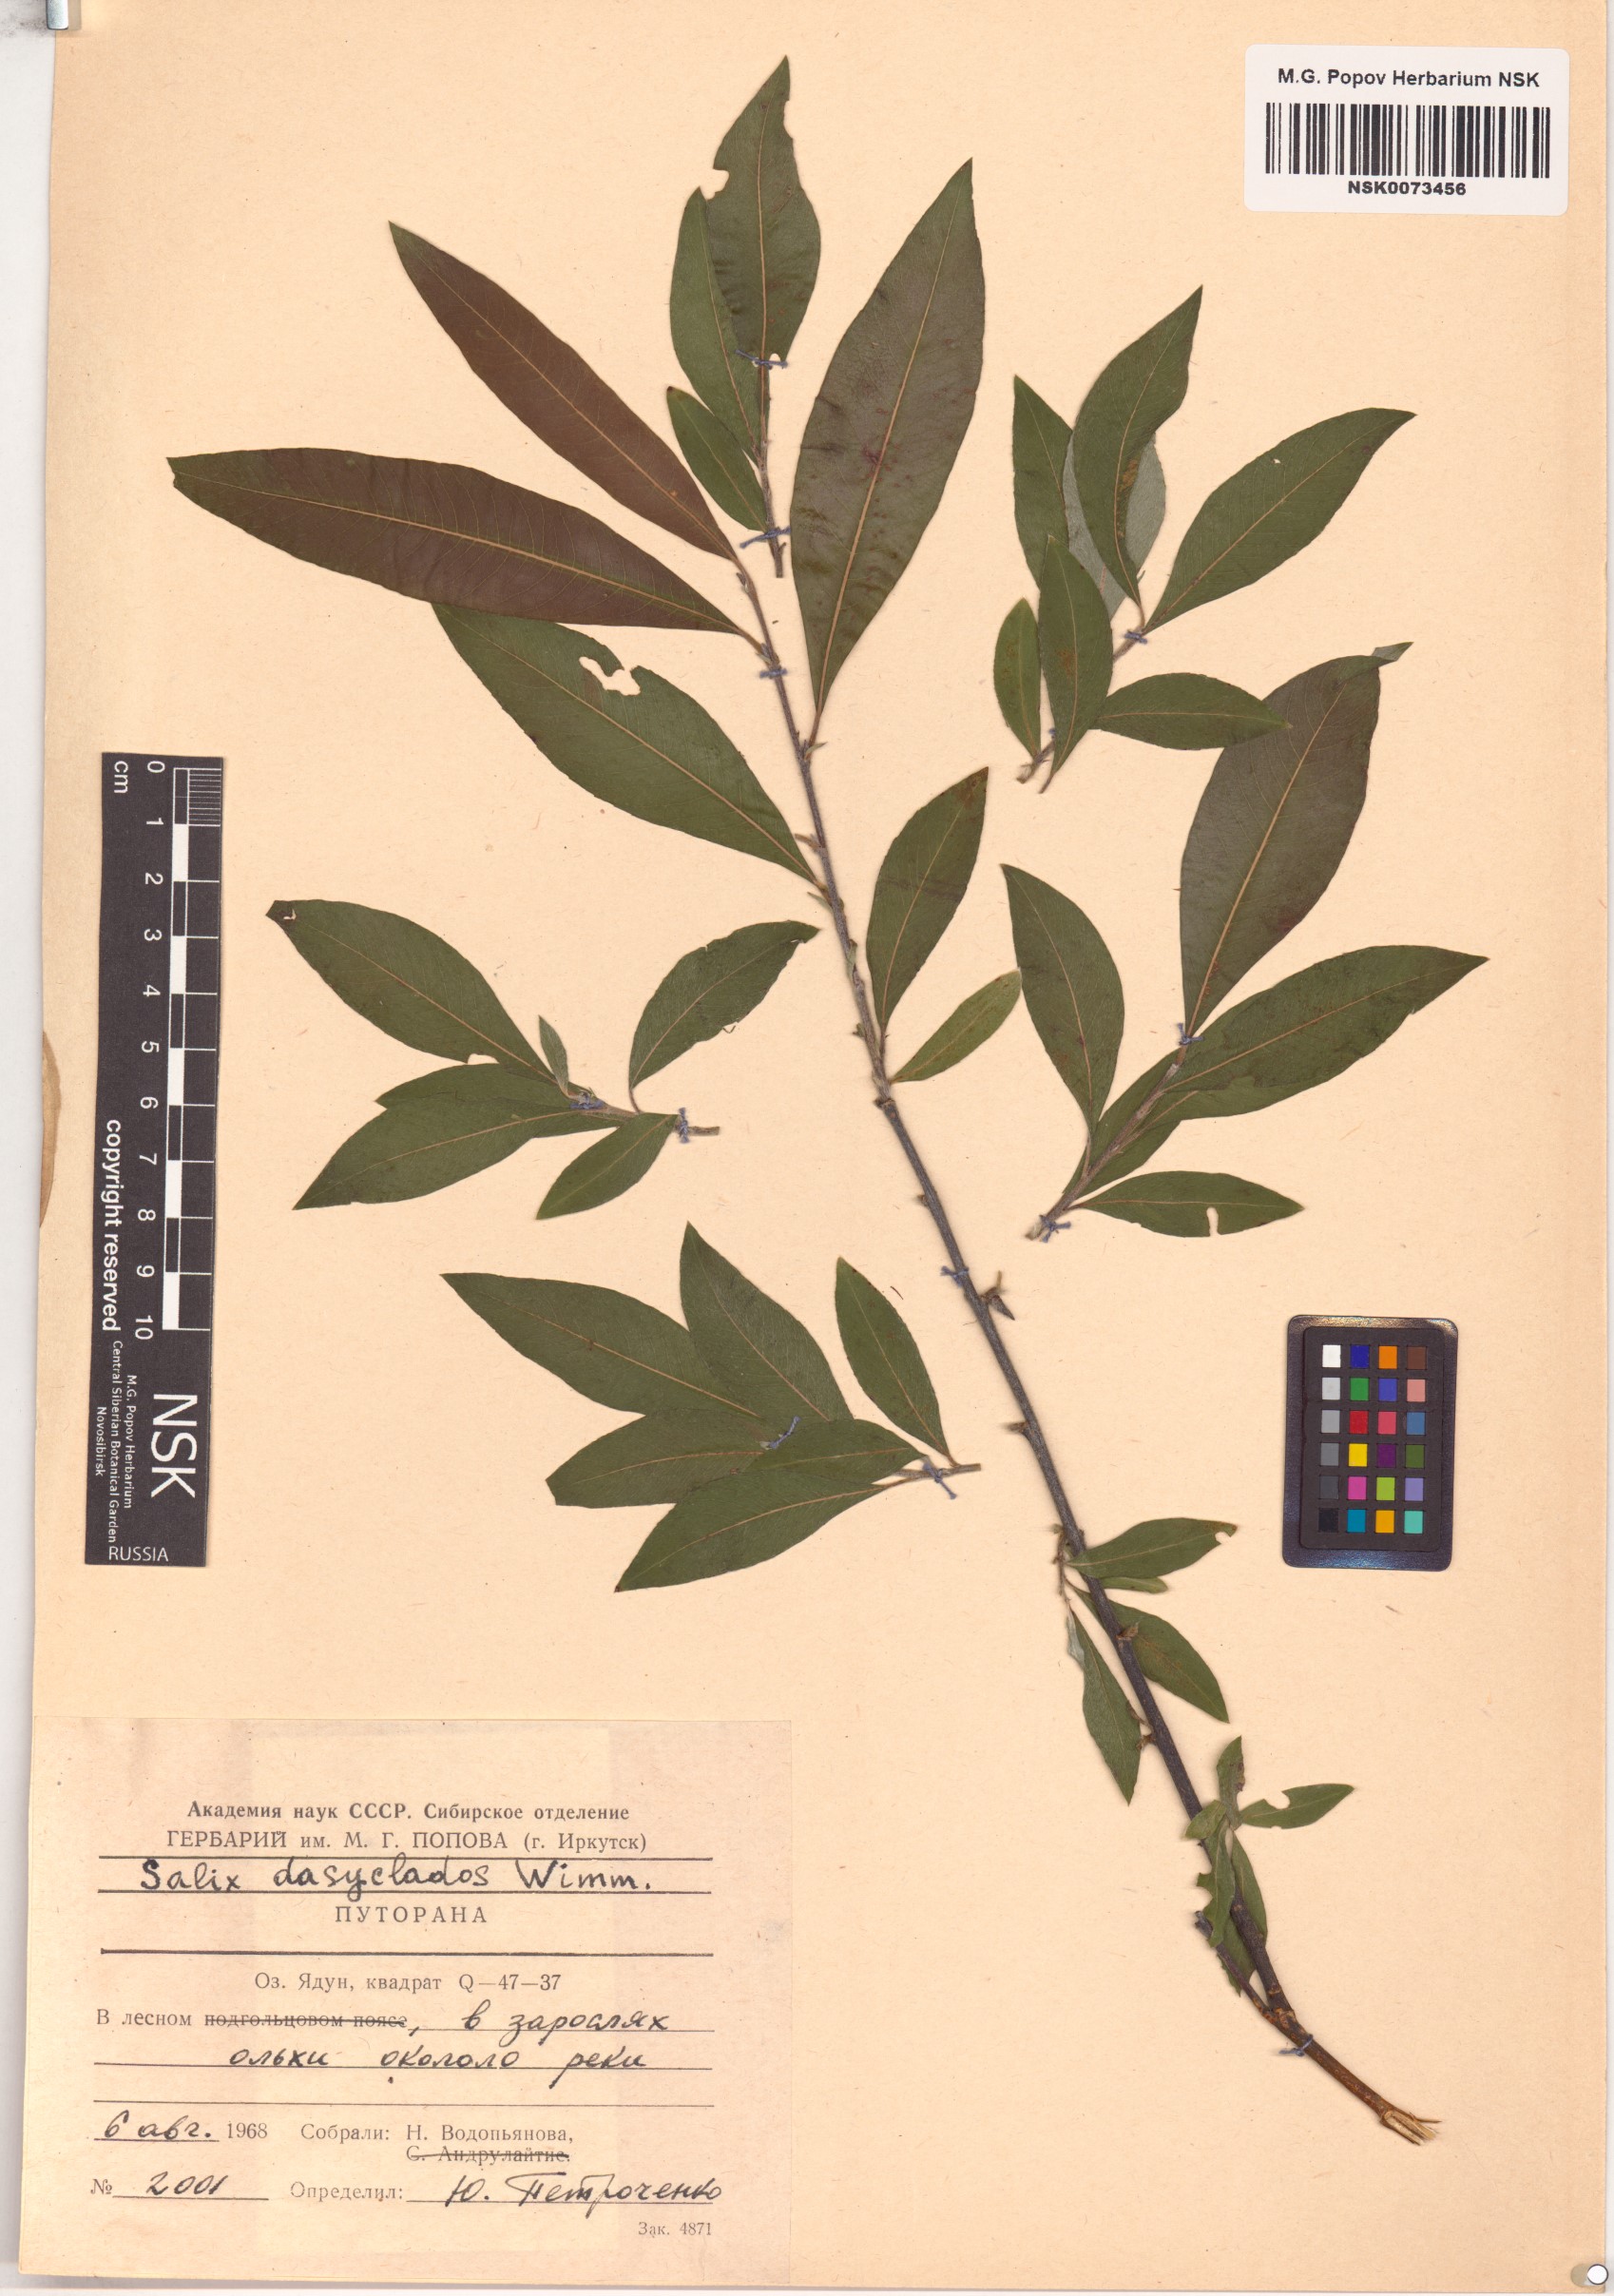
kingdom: Plantae
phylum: Tracheophyta
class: Magnoliopsida
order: Malpighiales
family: Salicaceae
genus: Salix
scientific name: Salix gmelinii
